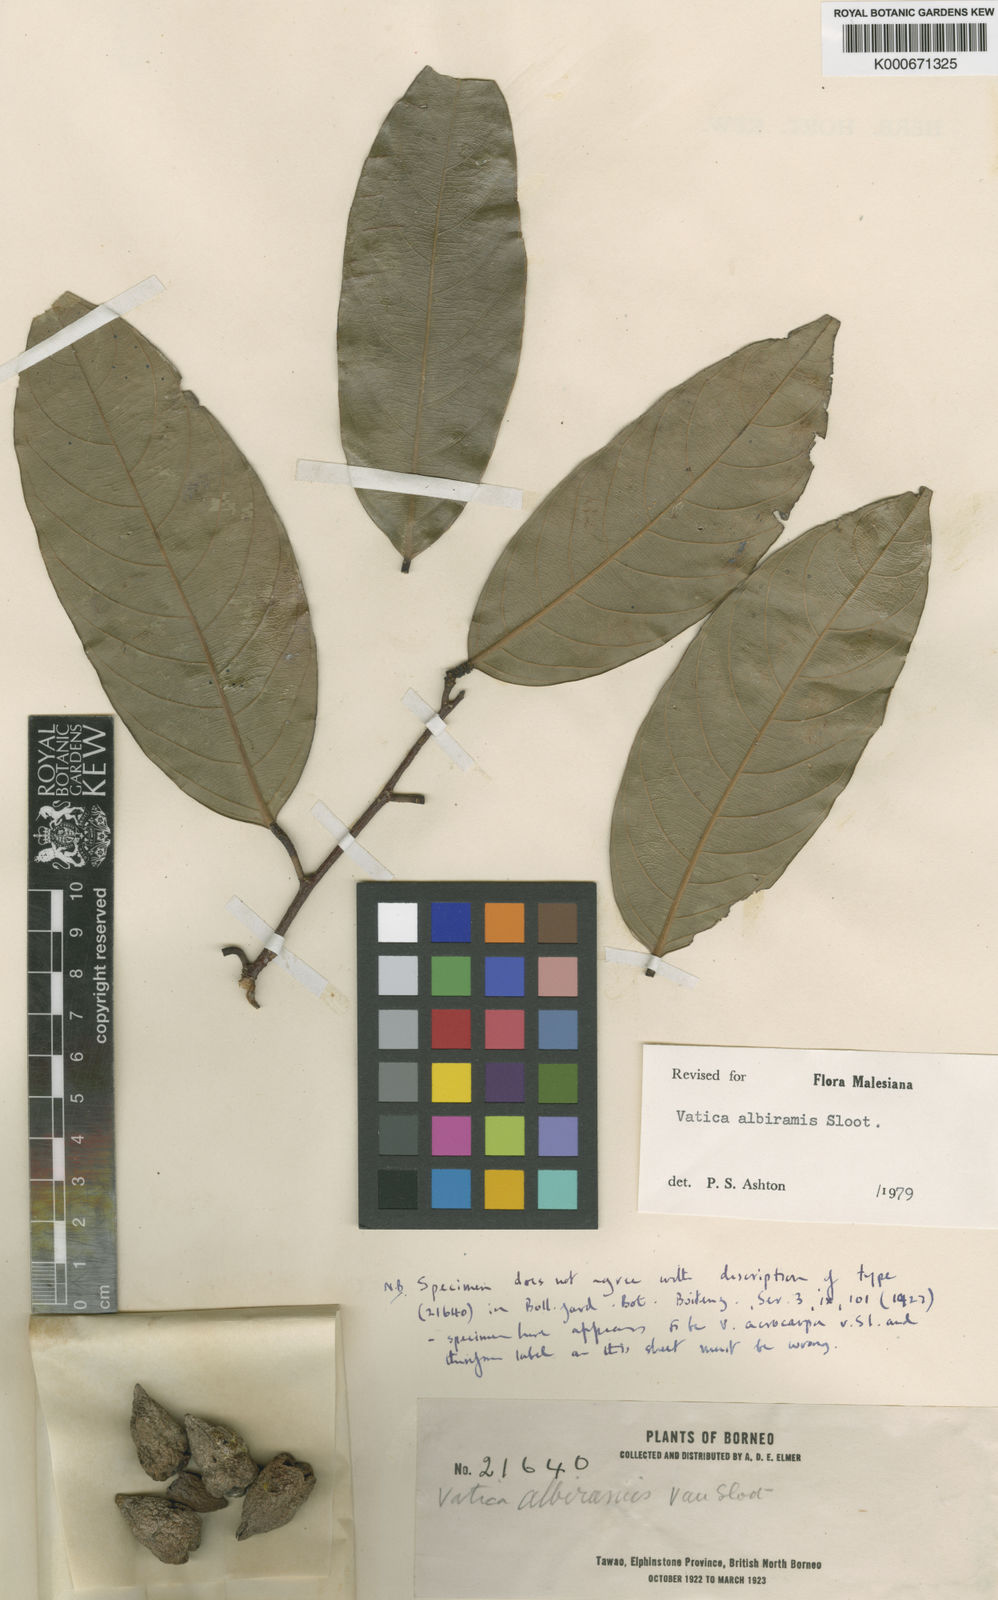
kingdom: Plantae
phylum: Tracheophyta
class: Magnoliopsida
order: Malvales
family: Dipterocarpaceae
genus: Vatica
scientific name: Vatica albiramis
